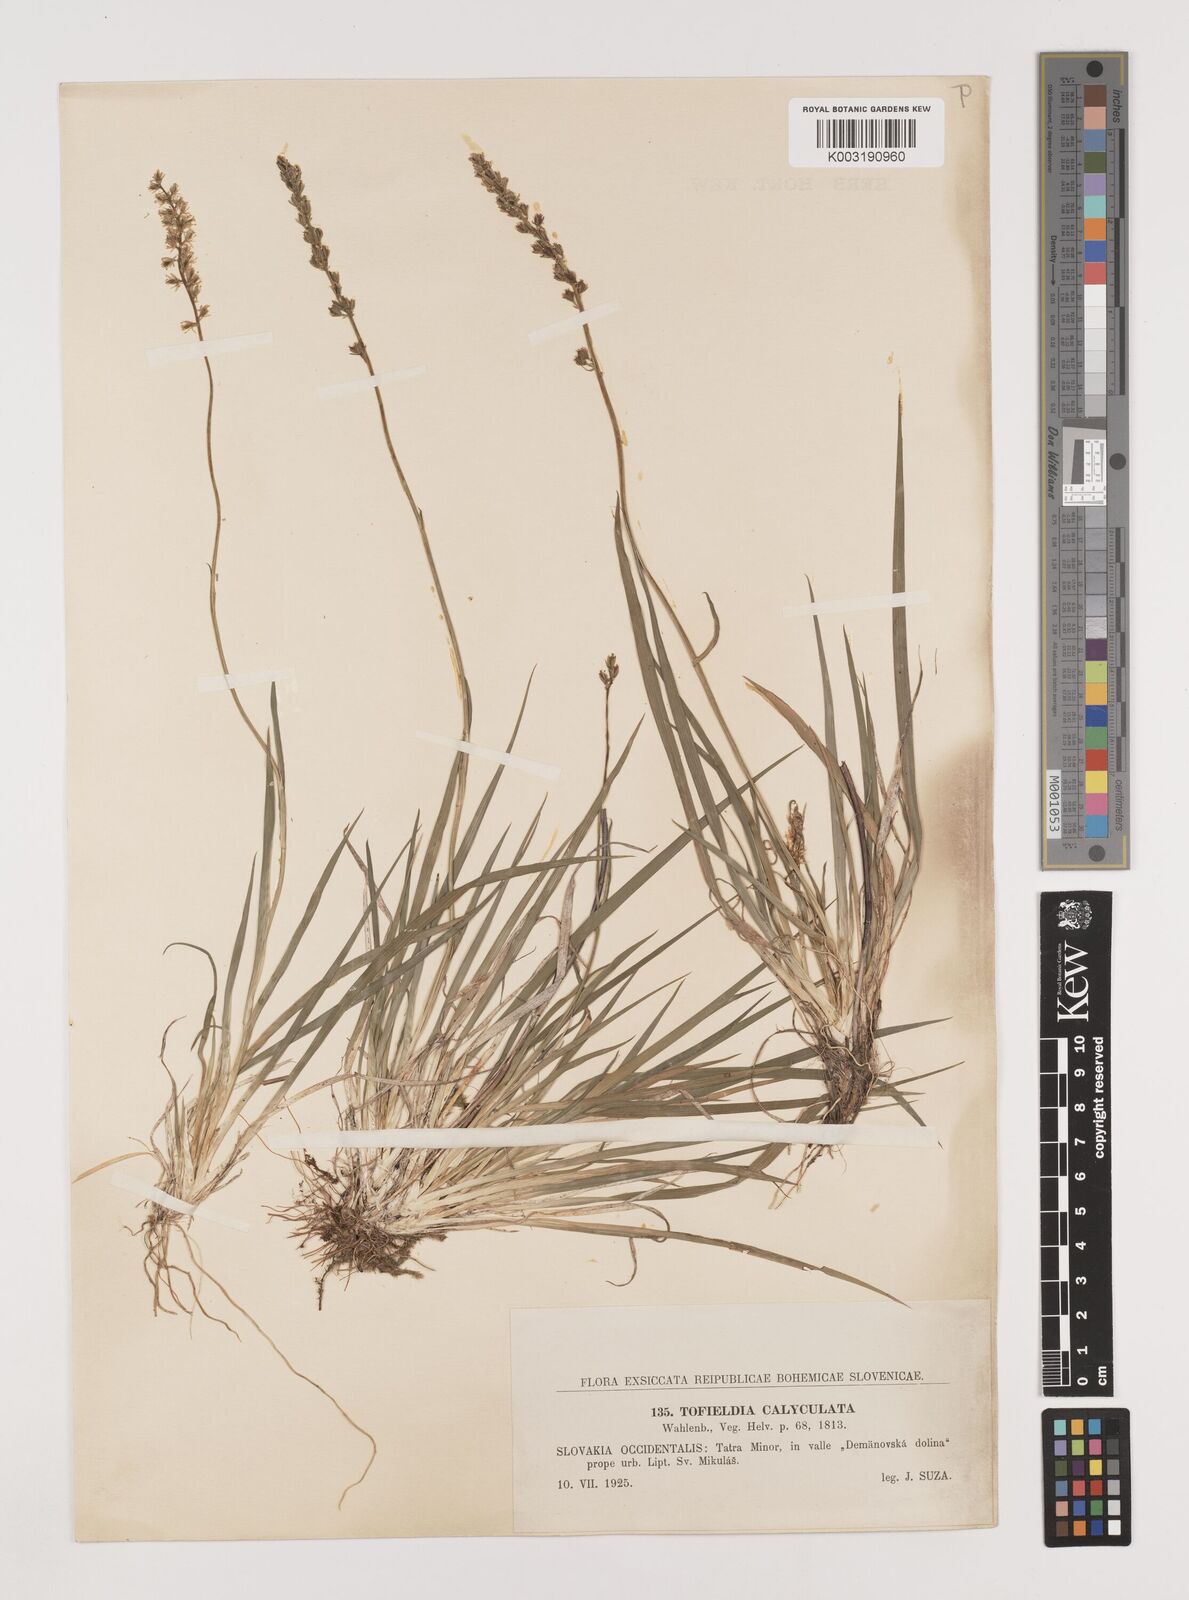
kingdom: Plantae
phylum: Tracheophyta
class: Liliopsida
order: Alismatales
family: Tofieldiaceae
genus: Tofieldia
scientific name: Tofieldia calyculata
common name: German-asphodel
